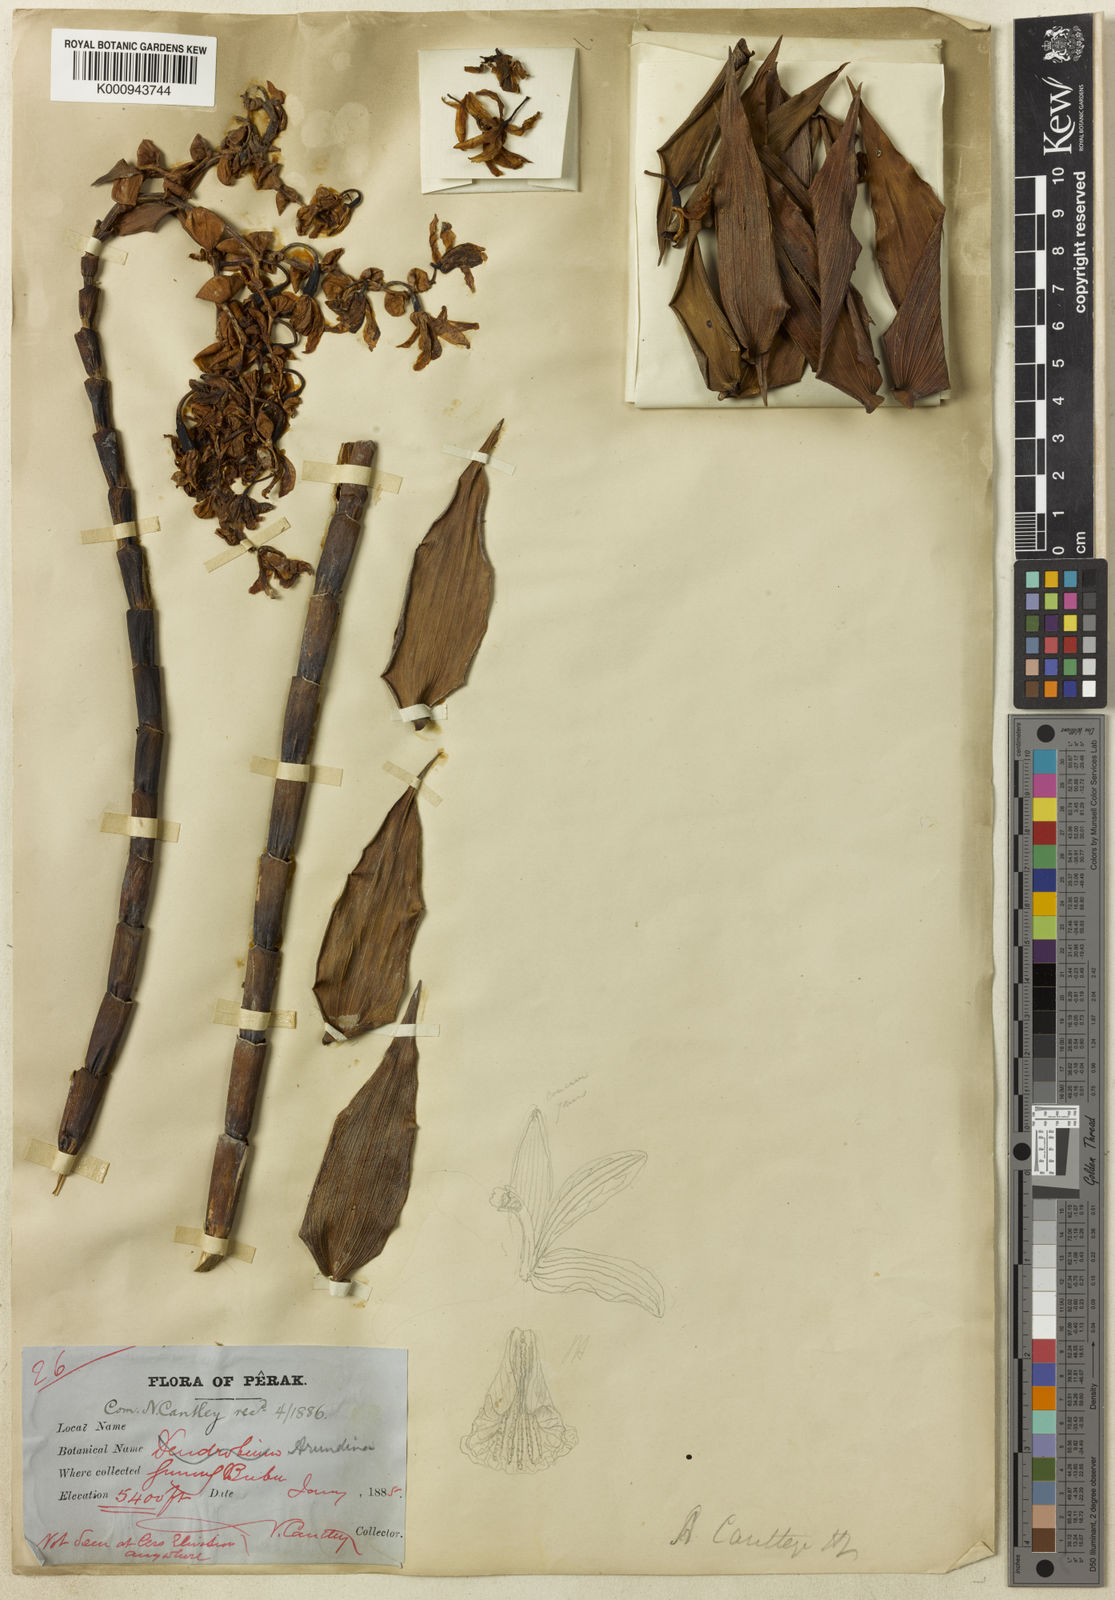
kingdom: Plantae
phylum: Tracheophyta
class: Liliopsida
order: Asparagales
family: Orchidaceae
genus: Dilochia
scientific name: Dilochia cantleyi
